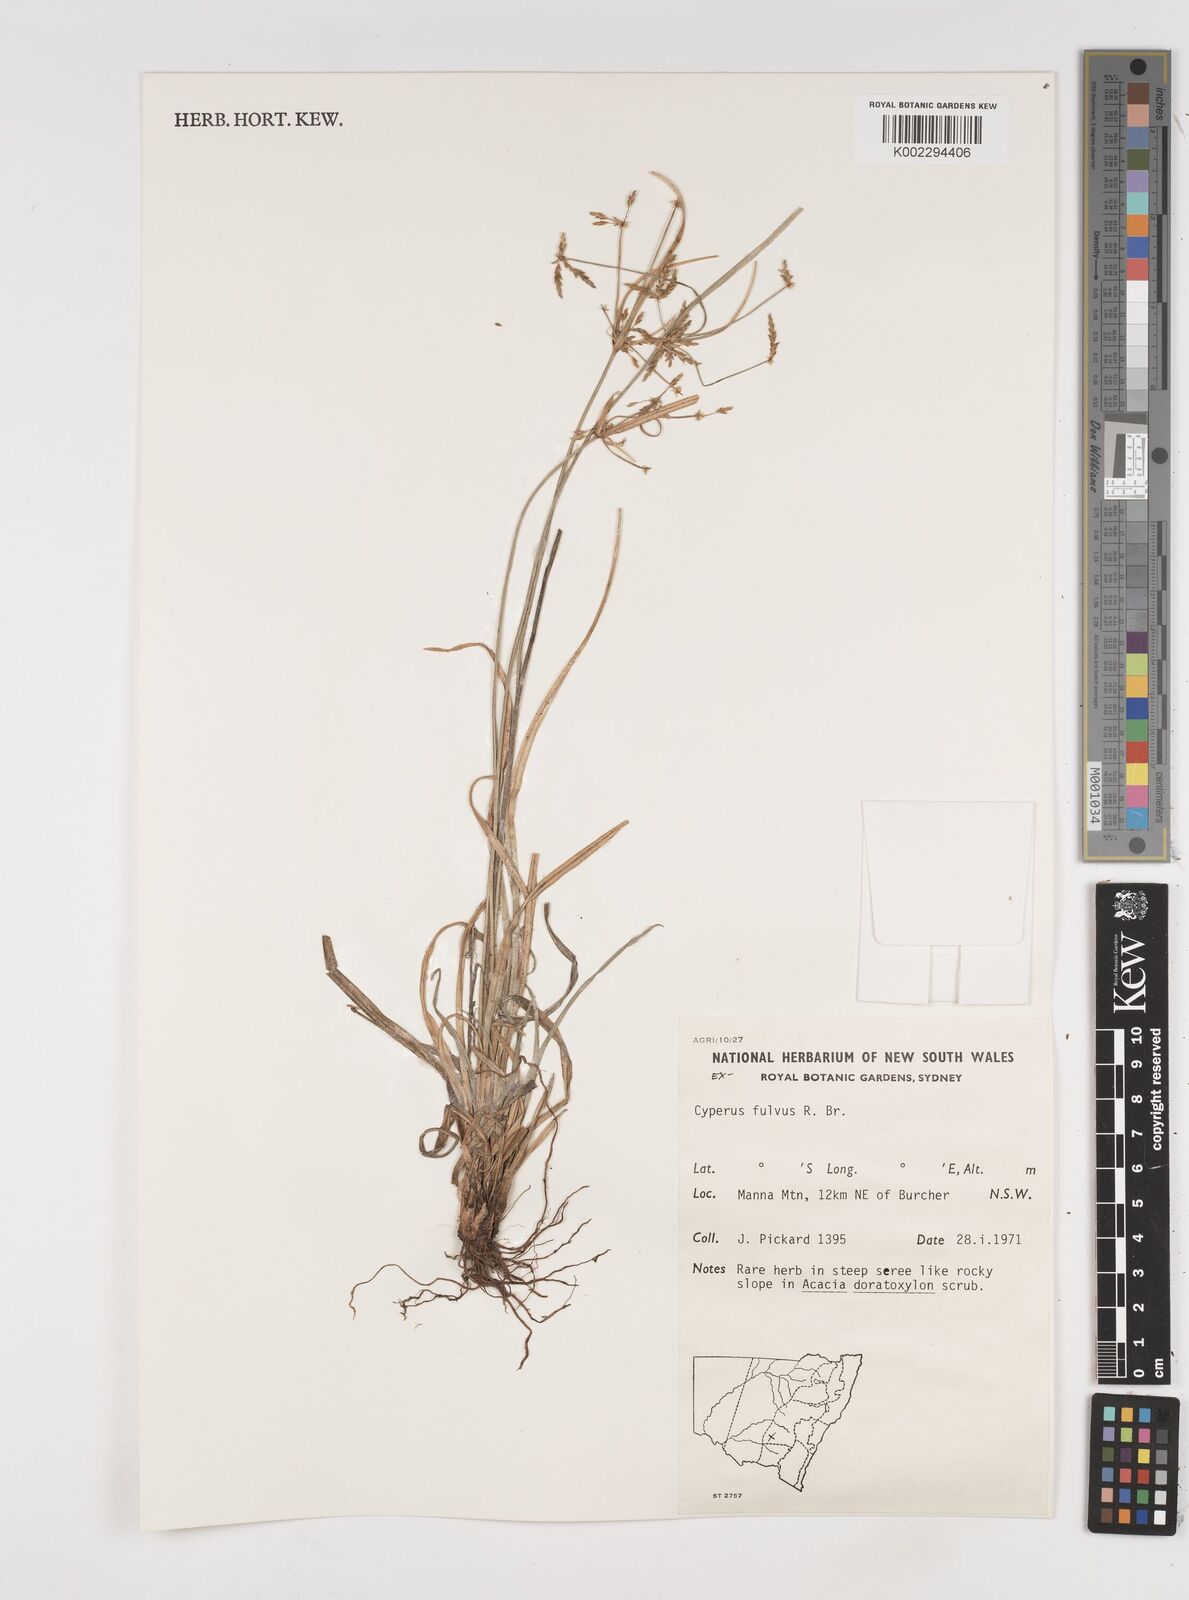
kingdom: Plantae
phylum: Tracheophyta
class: Liliopsida
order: Poales
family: Cyperaceae
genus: Cyperus
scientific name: Cyperus fulvus
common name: Sticky sedge
